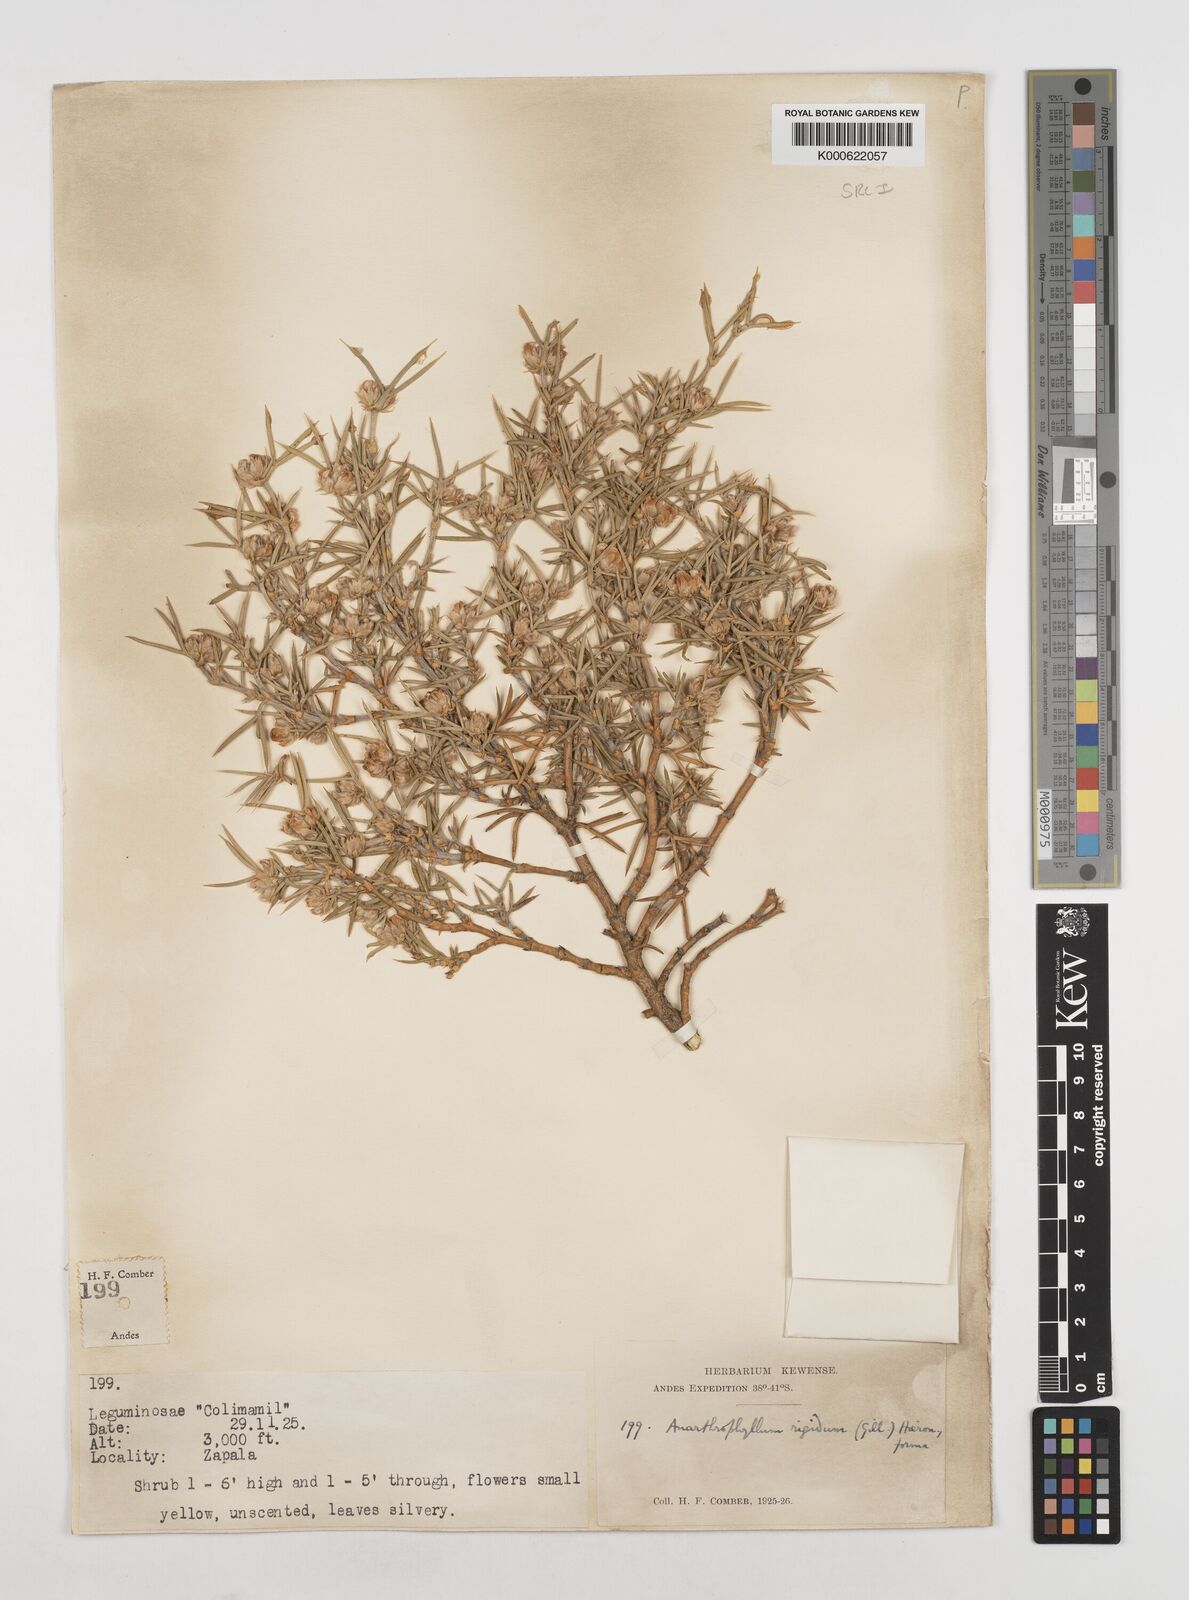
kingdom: Plantae
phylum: Tracheophyta
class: Magnoliopsida
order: Fabales
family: Fabaceae
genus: Anarthrophyllum
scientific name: Anarthrophyllum rigidum
